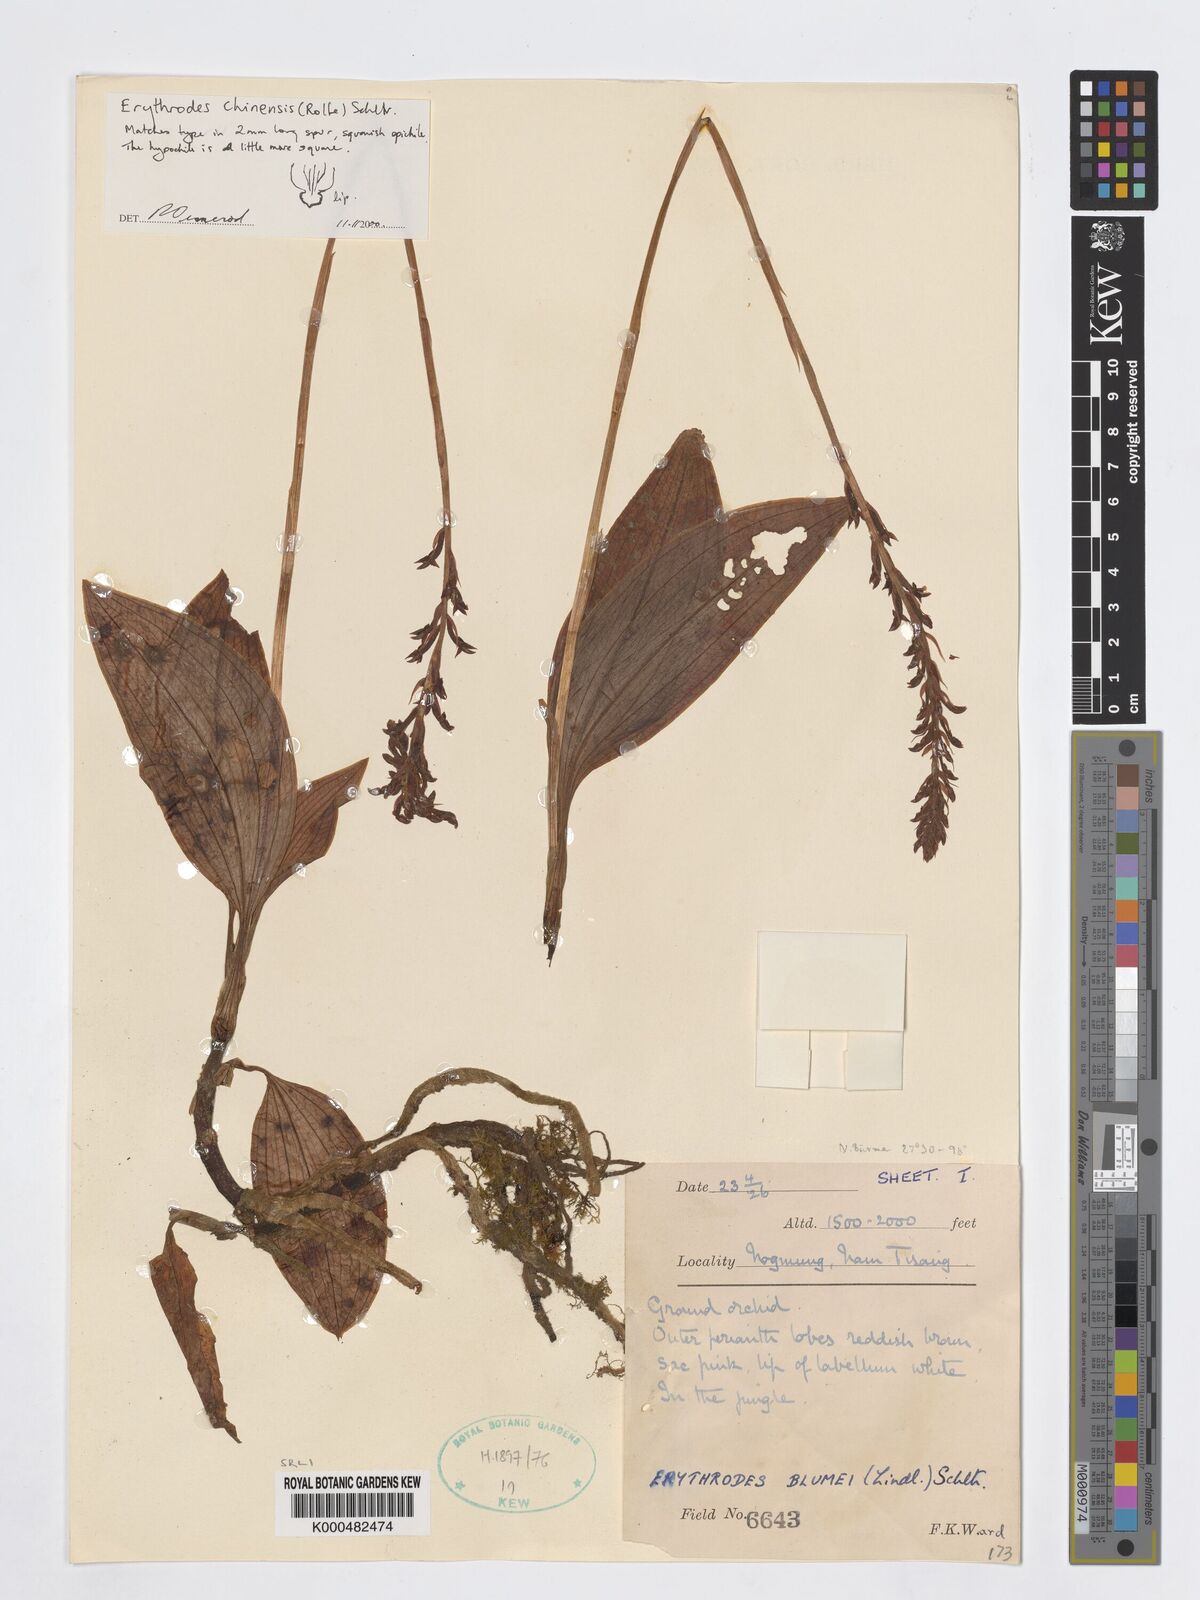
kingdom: Plantae
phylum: Tracheophyta
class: Liliopsida
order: Asparagales
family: Orchidaceae
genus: Erythrodes
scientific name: Erythrodes chinensis
